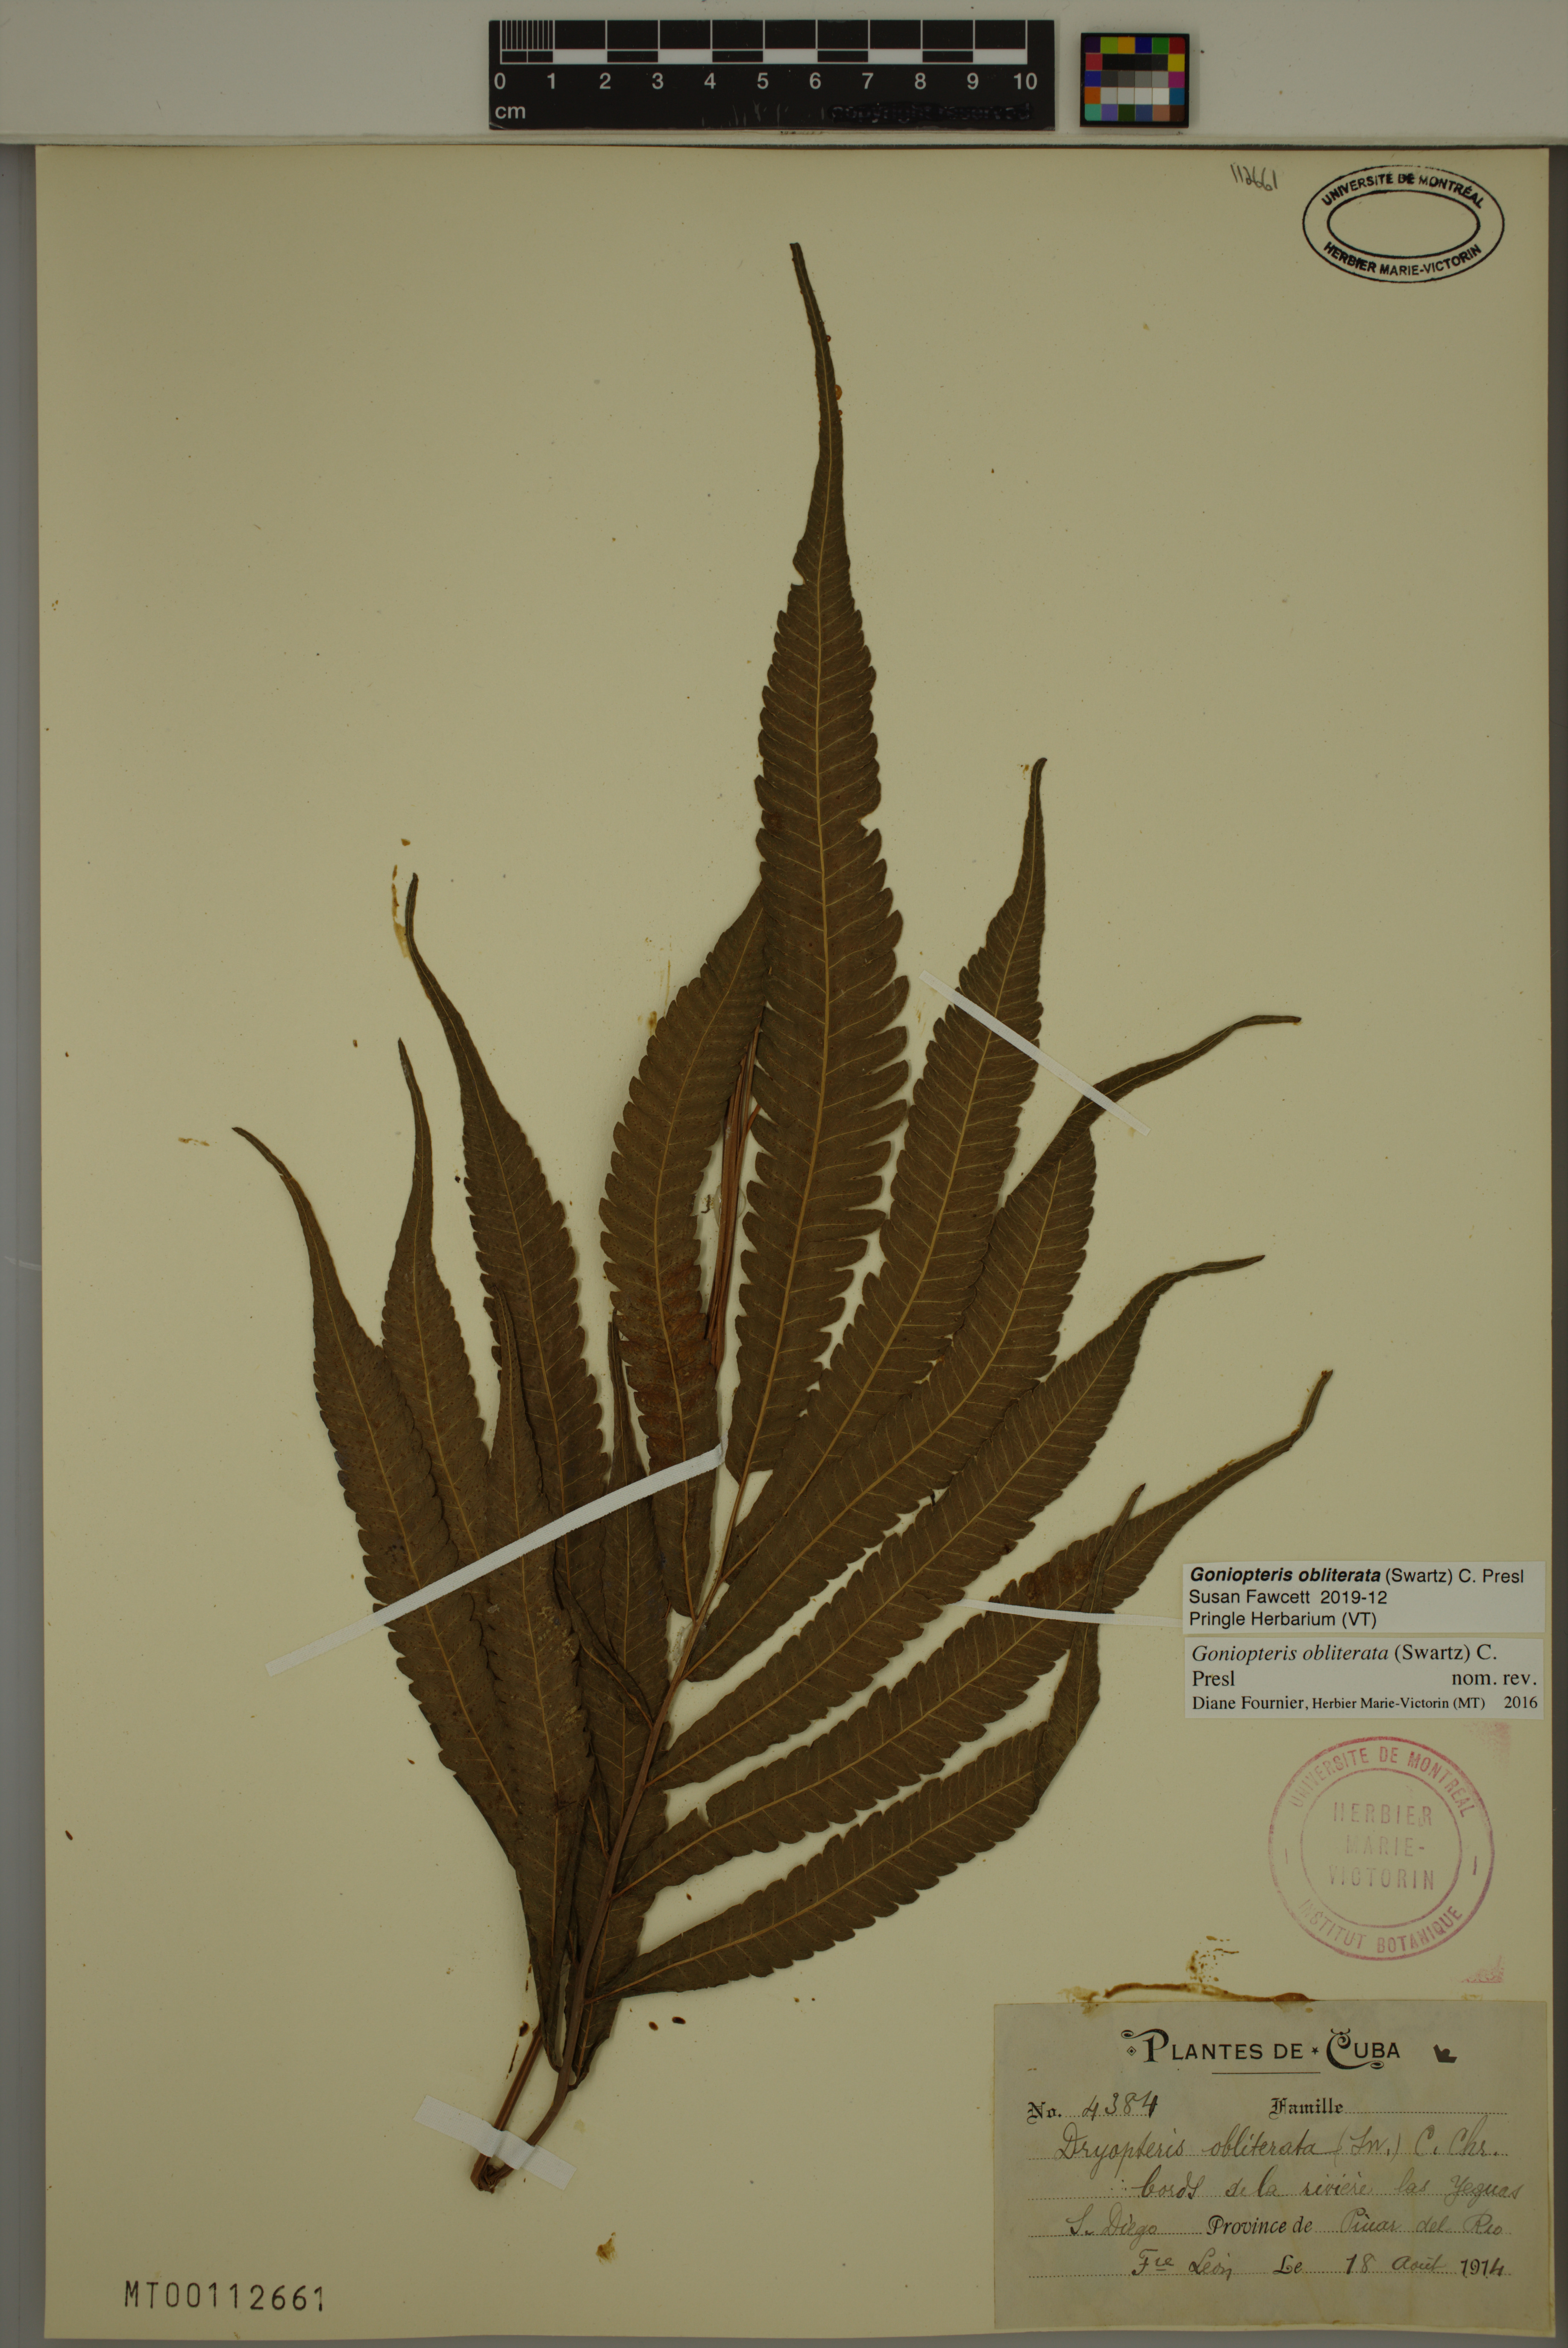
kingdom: Plantae
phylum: Tracheophyta
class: Polypodiopsida
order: Polypodiales
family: Thelypteridaceae
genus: Goniopteris
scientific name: Goniopteris obliterata
